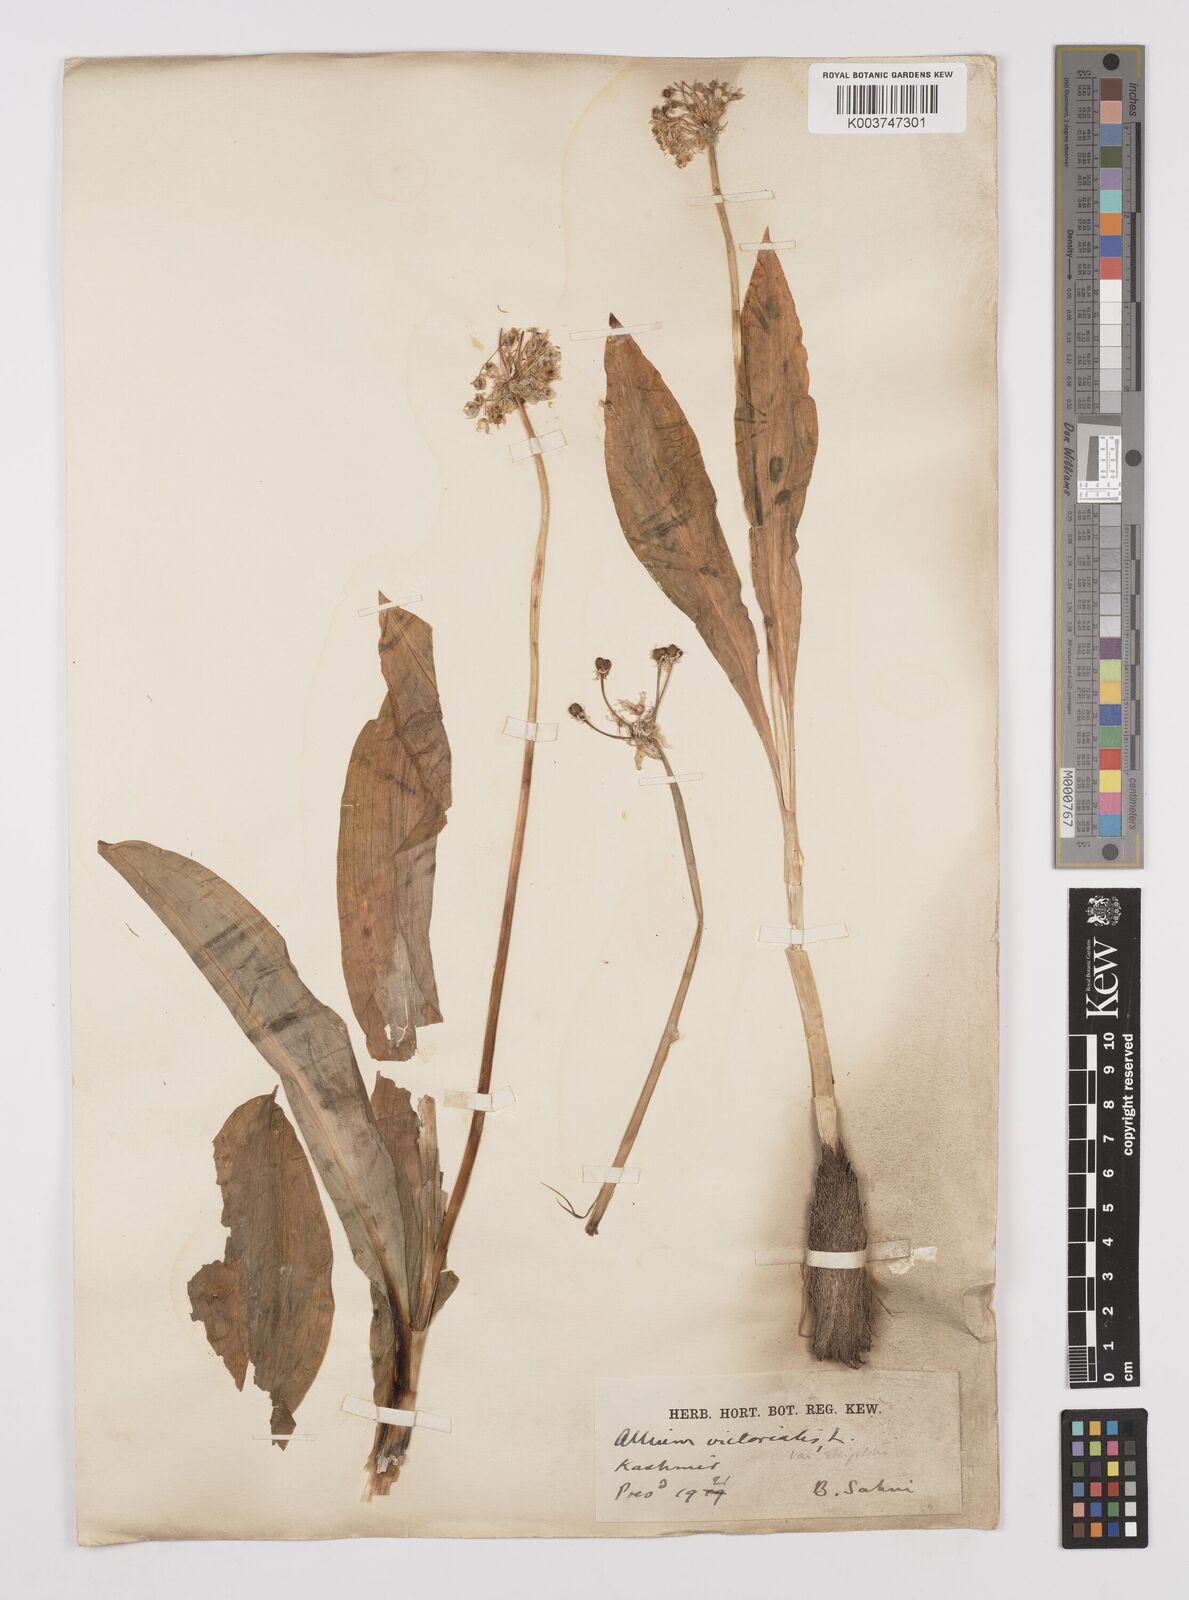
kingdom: Plantae
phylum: Tracheophyta
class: Liliopsida
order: Asparagales
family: Amaryllidaceae
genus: Allium
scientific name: Allium victorialis
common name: Alpine leek
